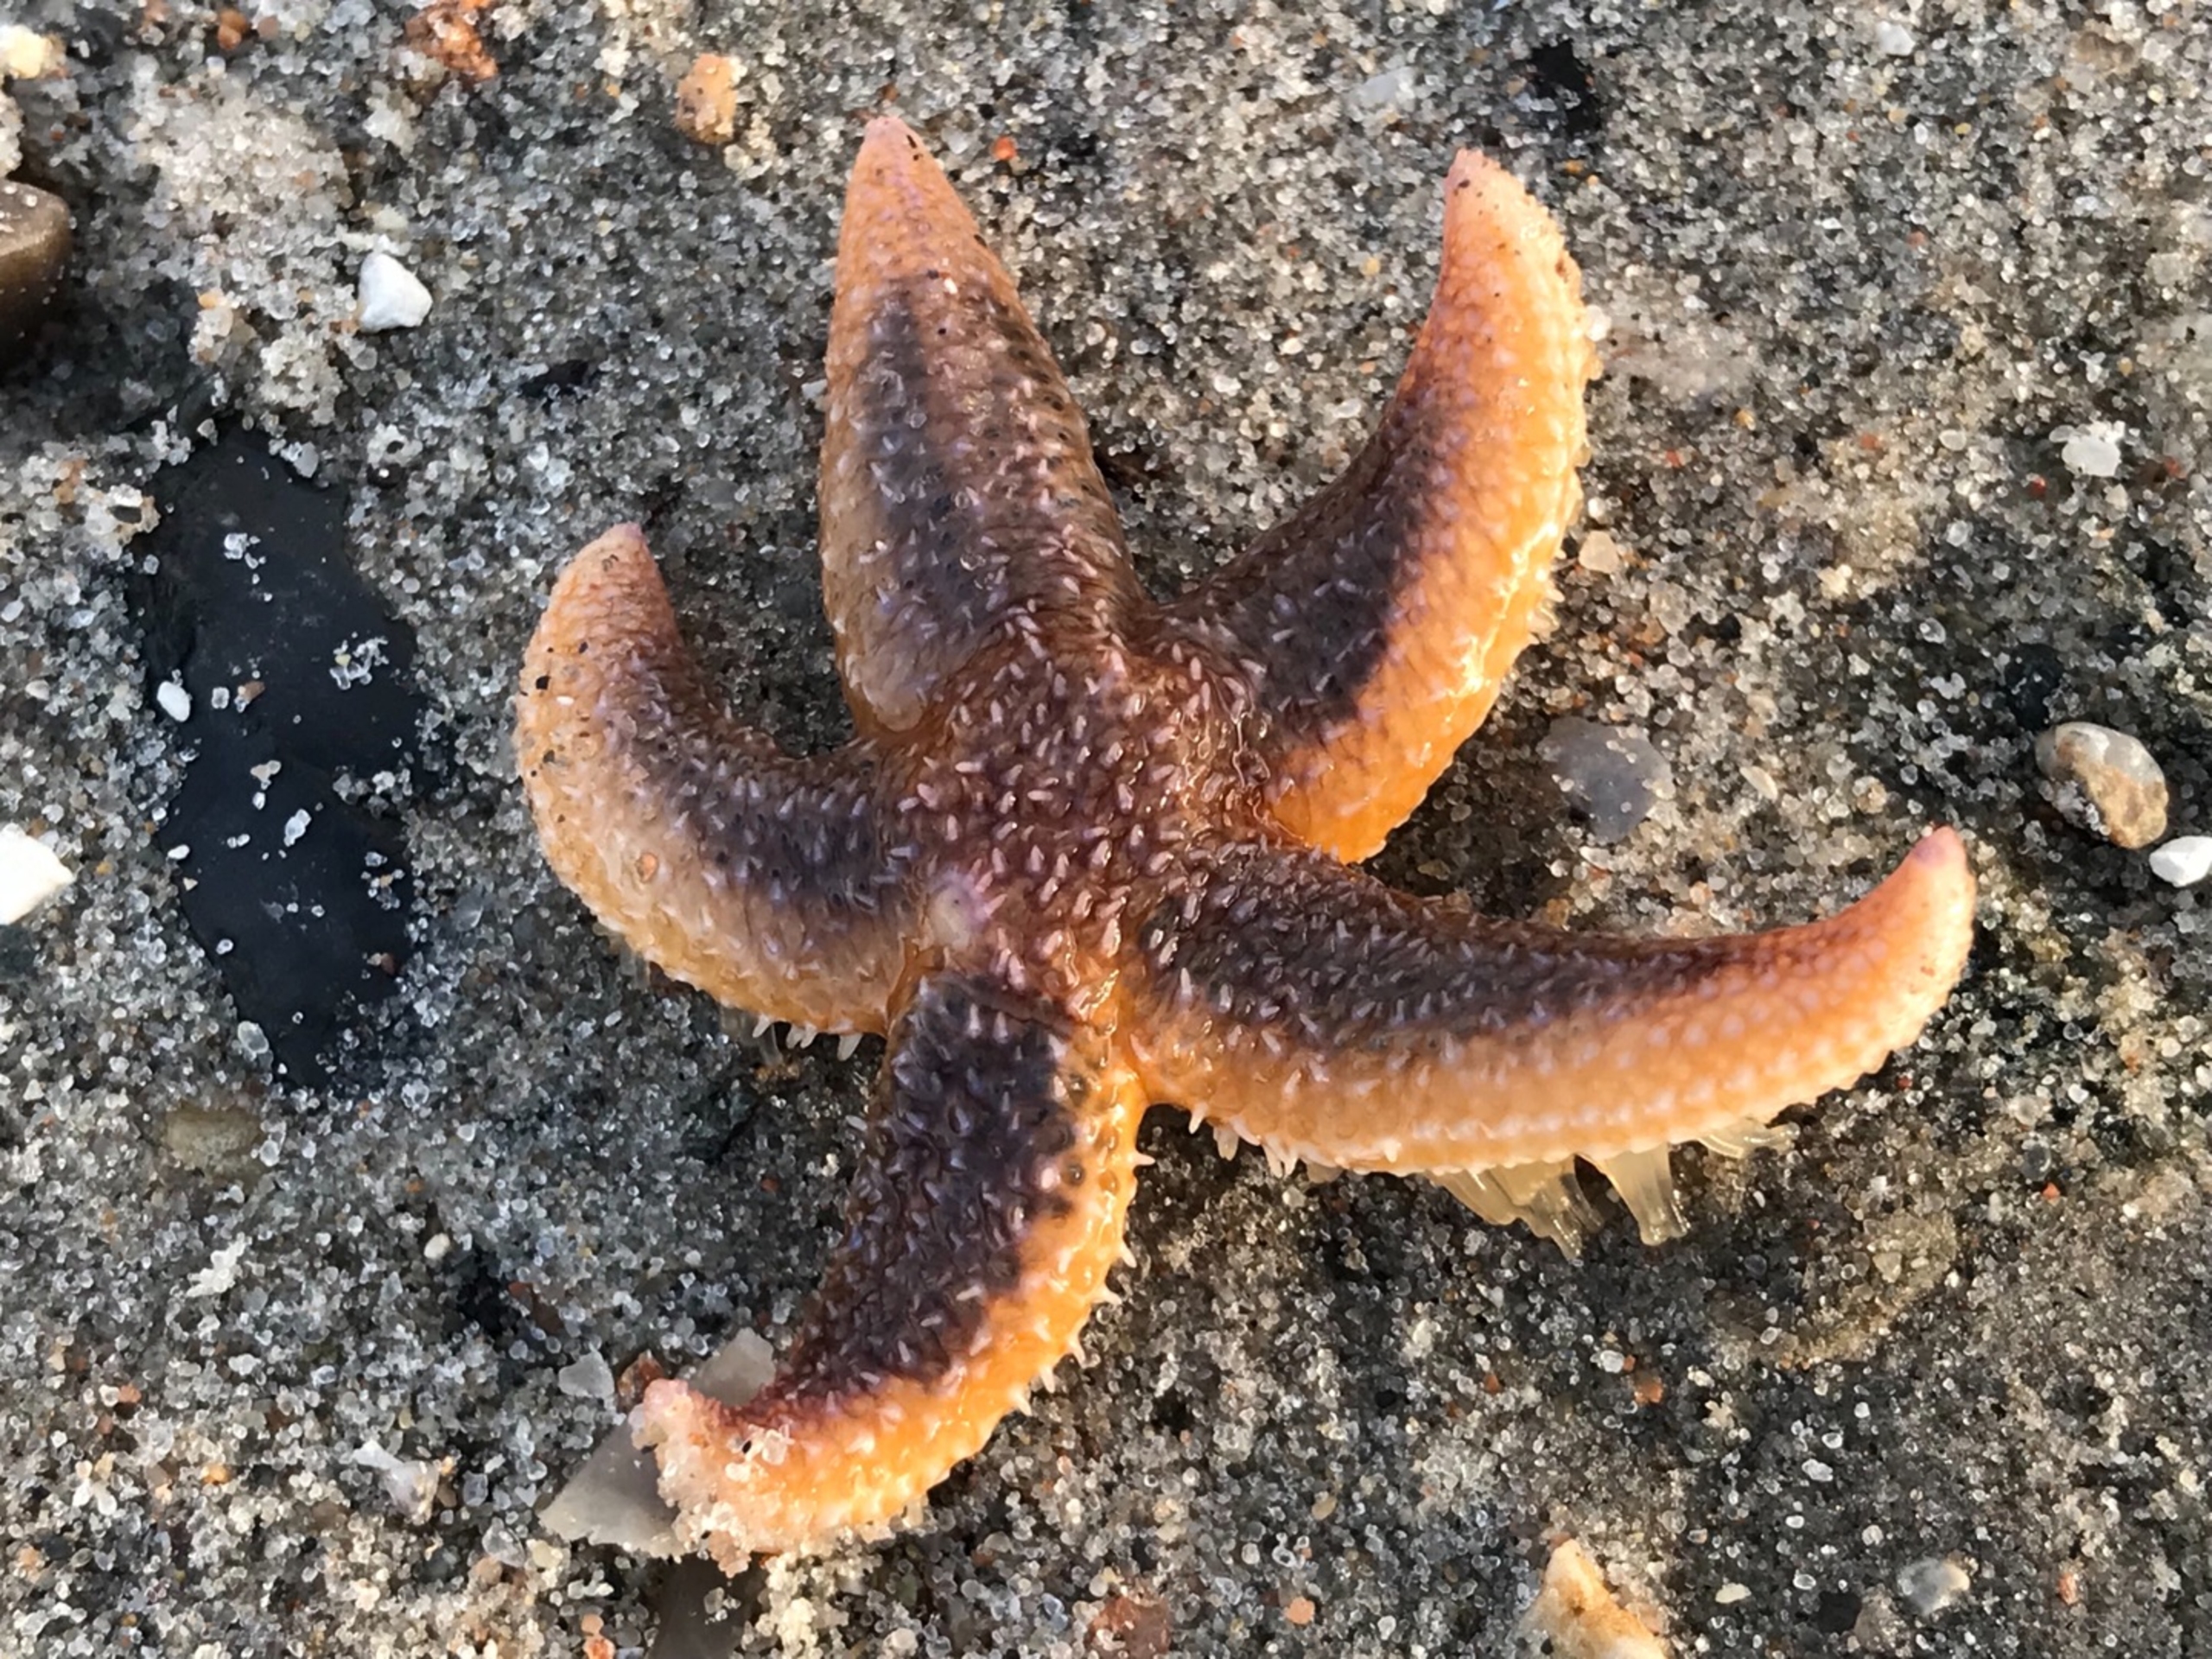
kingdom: Animalia
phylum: Echinodermata
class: Asteroidea
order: Forcipulatida
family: Asteriidae
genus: Asterias
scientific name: Asterias rubens
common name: Almindelig søstjerne
